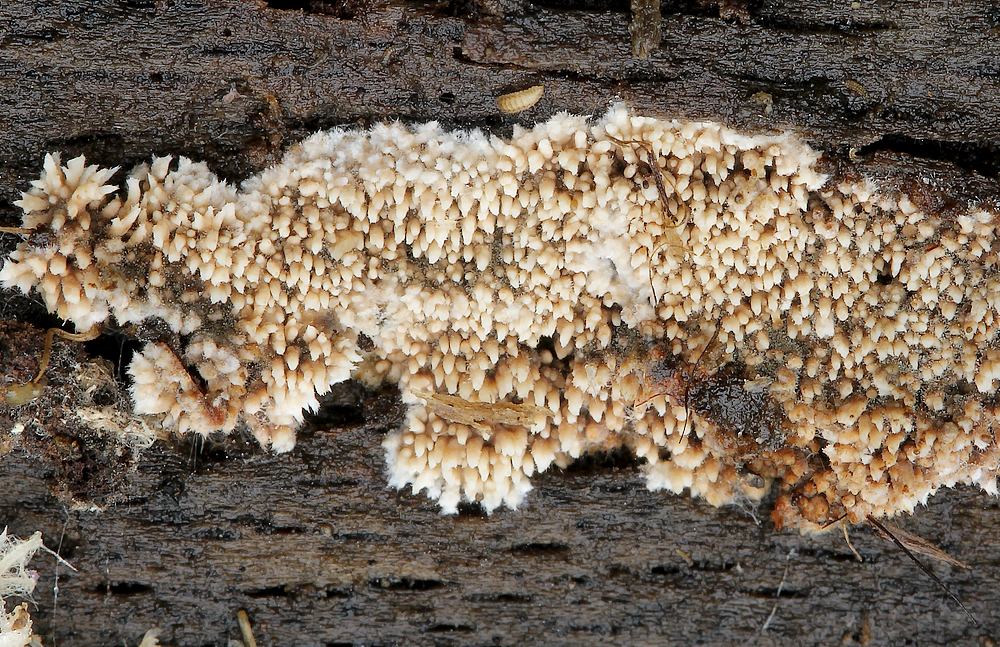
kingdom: Fungi
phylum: Basidiomycota
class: Agaricomycetes
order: Polyporales
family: Meruliaceae
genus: Mycoacia
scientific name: Mycoacia fuscoatra
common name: mørk vokspig
